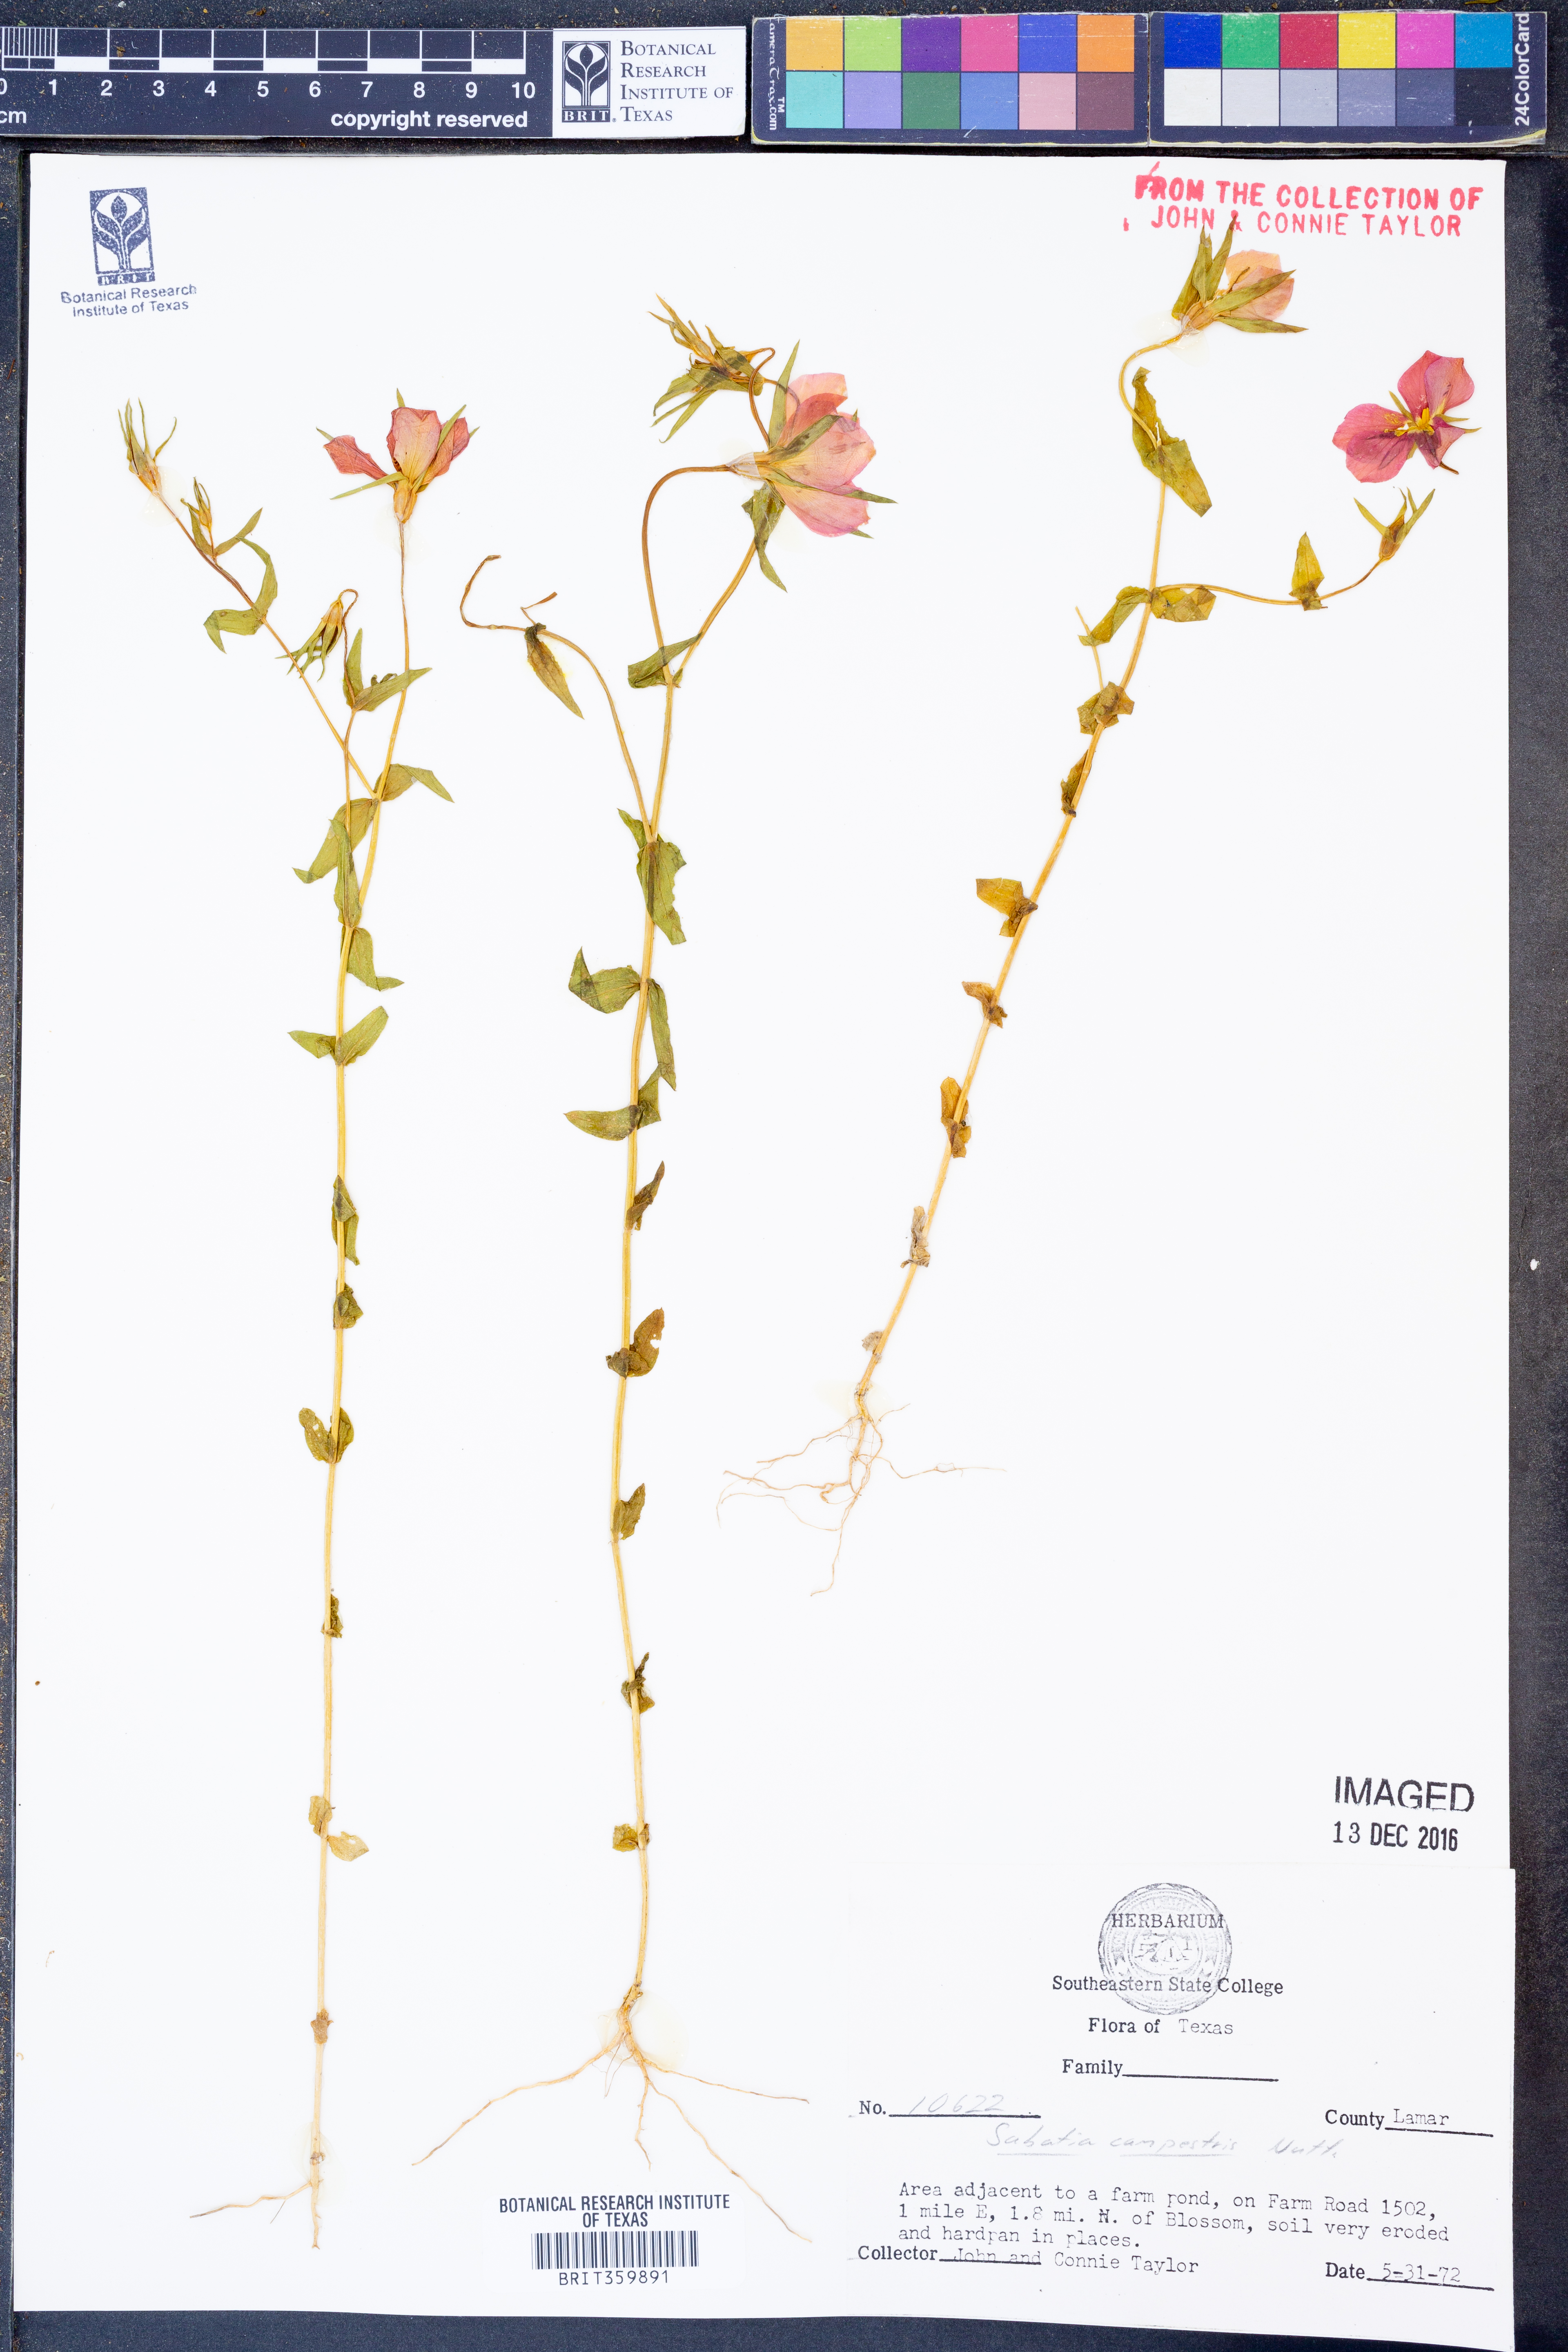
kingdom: Plantae
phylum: Tracheophyta
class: Magnoliopsida
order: Gentianales
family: Gentianaceae
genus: Sabatia
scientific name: Sabatia campestris
